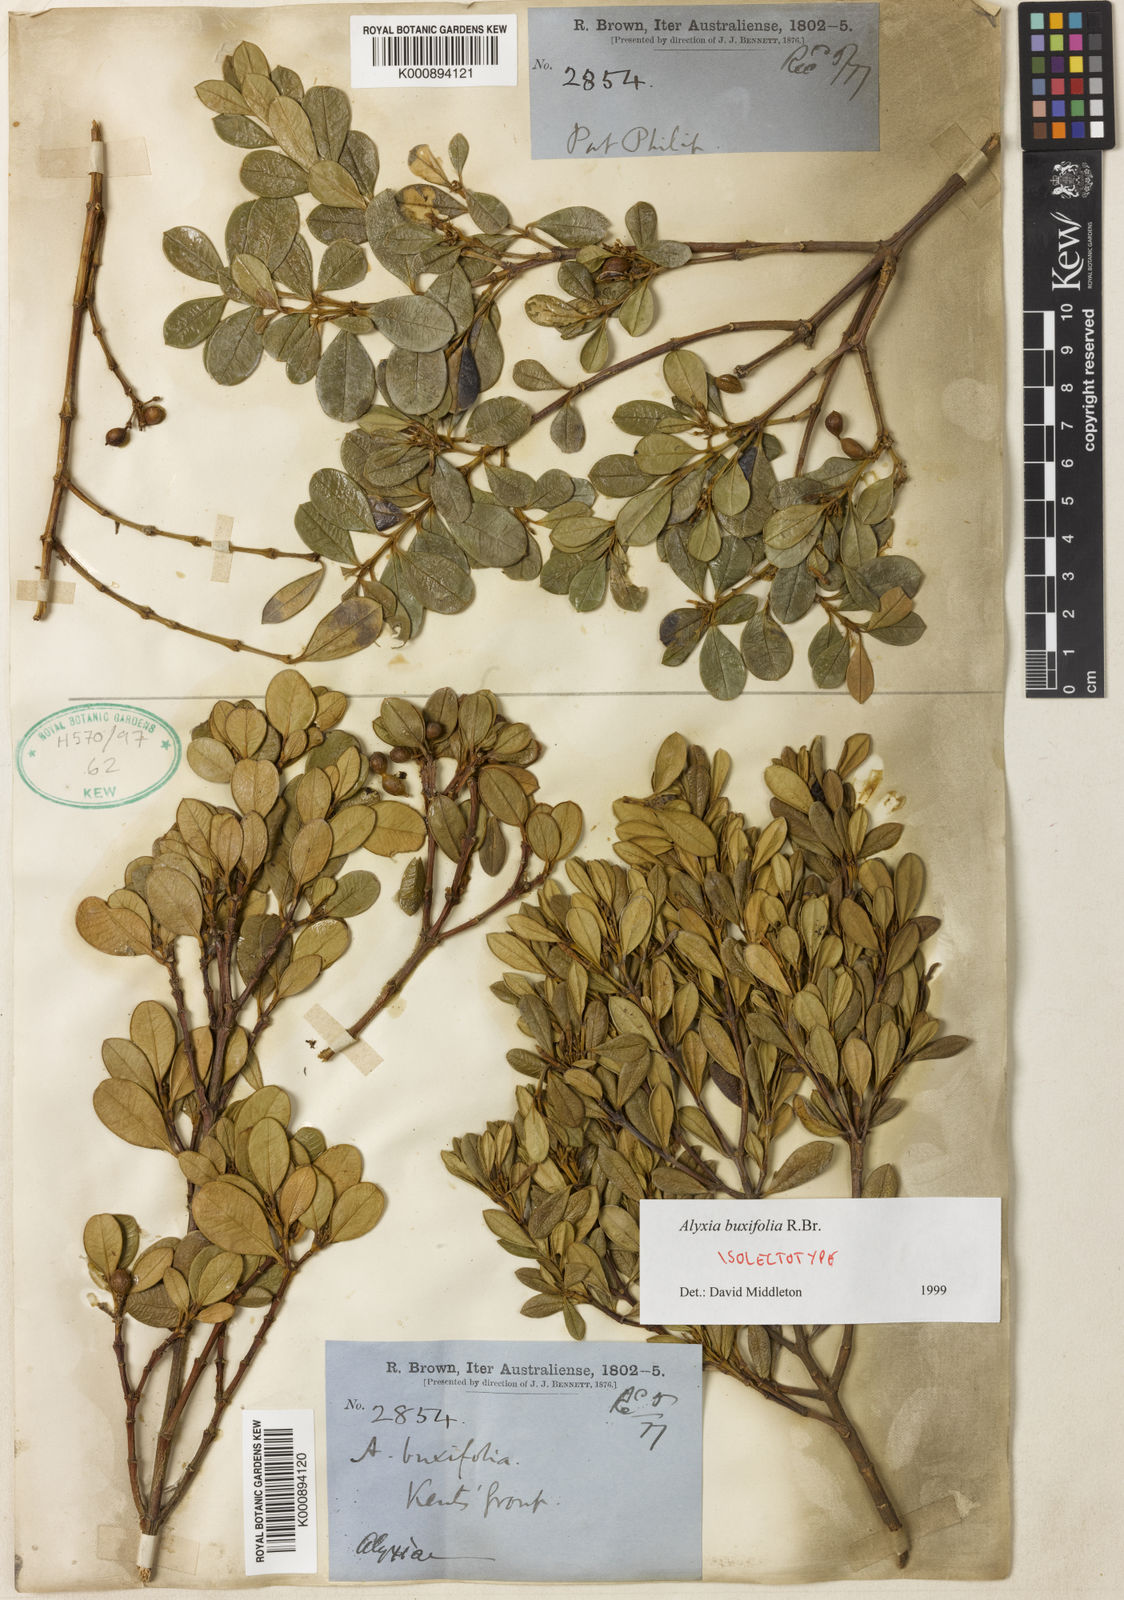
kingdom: Plantae
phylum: Tracheophyta
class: Magnoliopsida
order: Gentianales
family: Apocynaceae
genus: Alyxia
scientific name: Alyxia buxifolia
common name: Dysentery-bush
